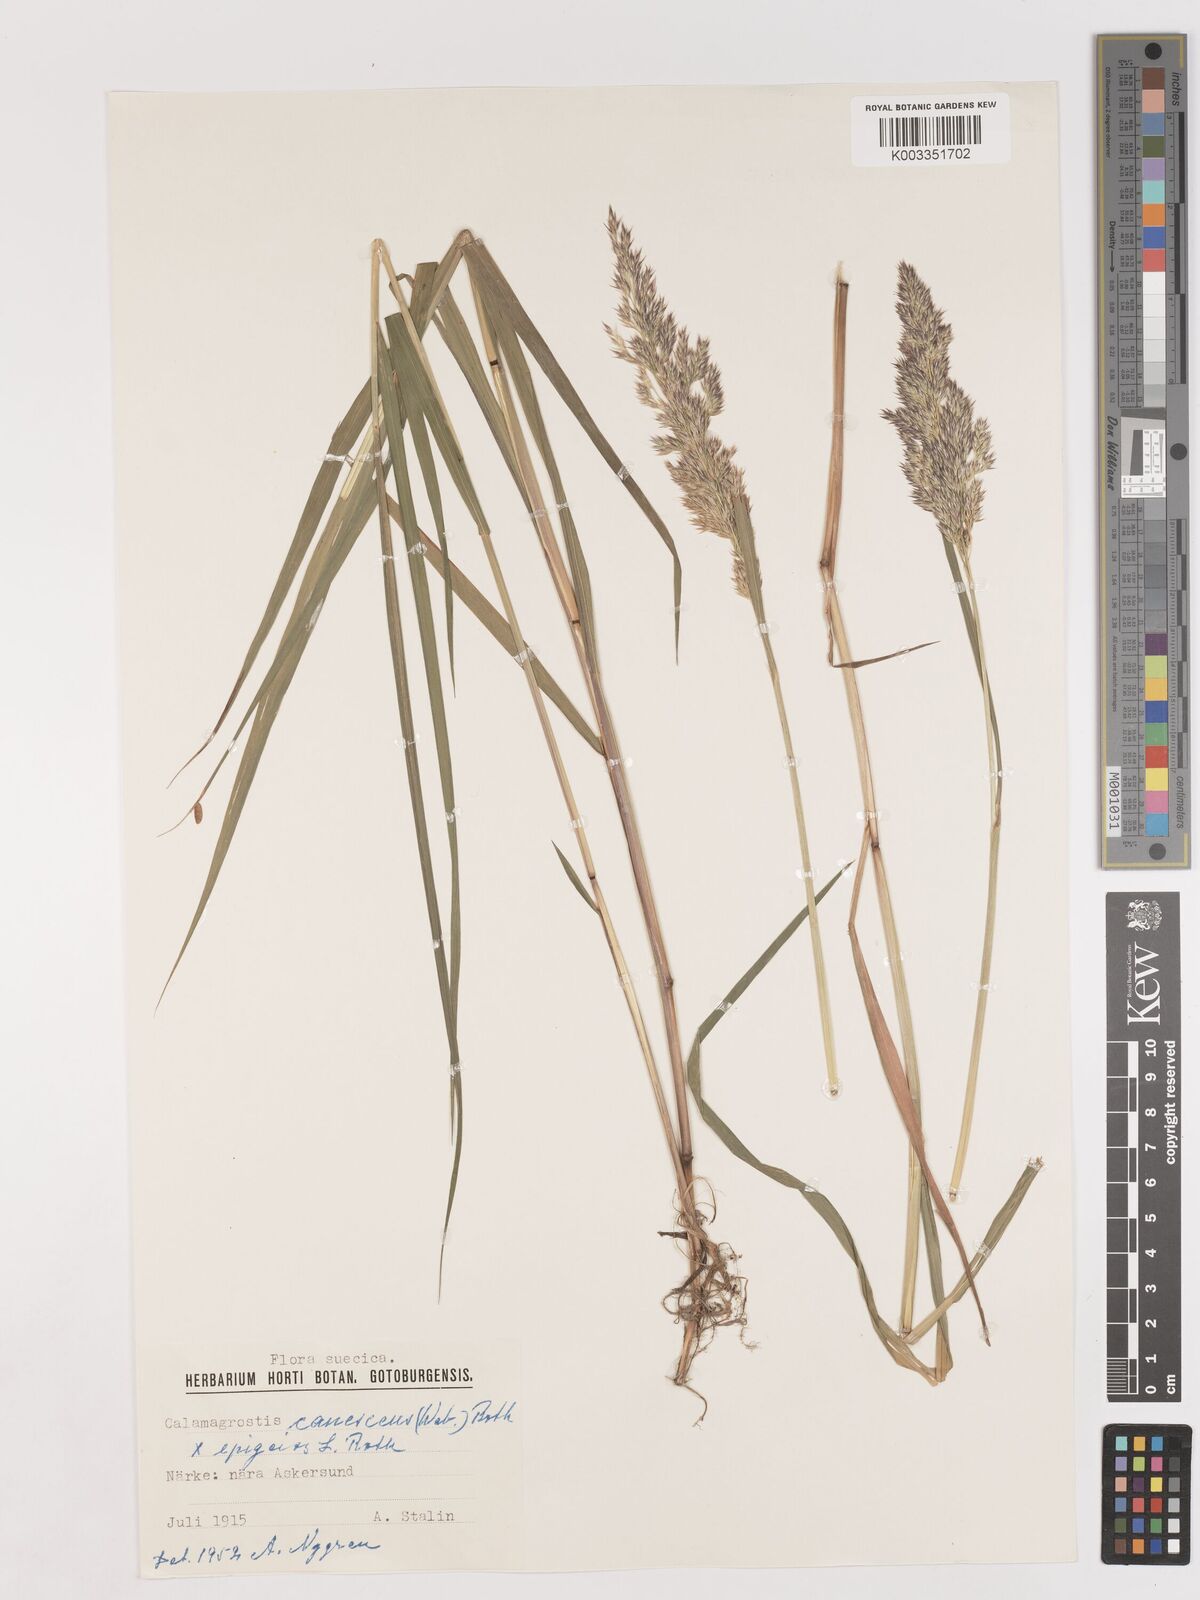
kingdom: Plantae
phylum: Tracheophyta
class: Liliopsida
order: Poales
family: Poaceae
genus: Calamagrostis
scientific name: Calamagrostis canescens
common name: Purple small-reed
